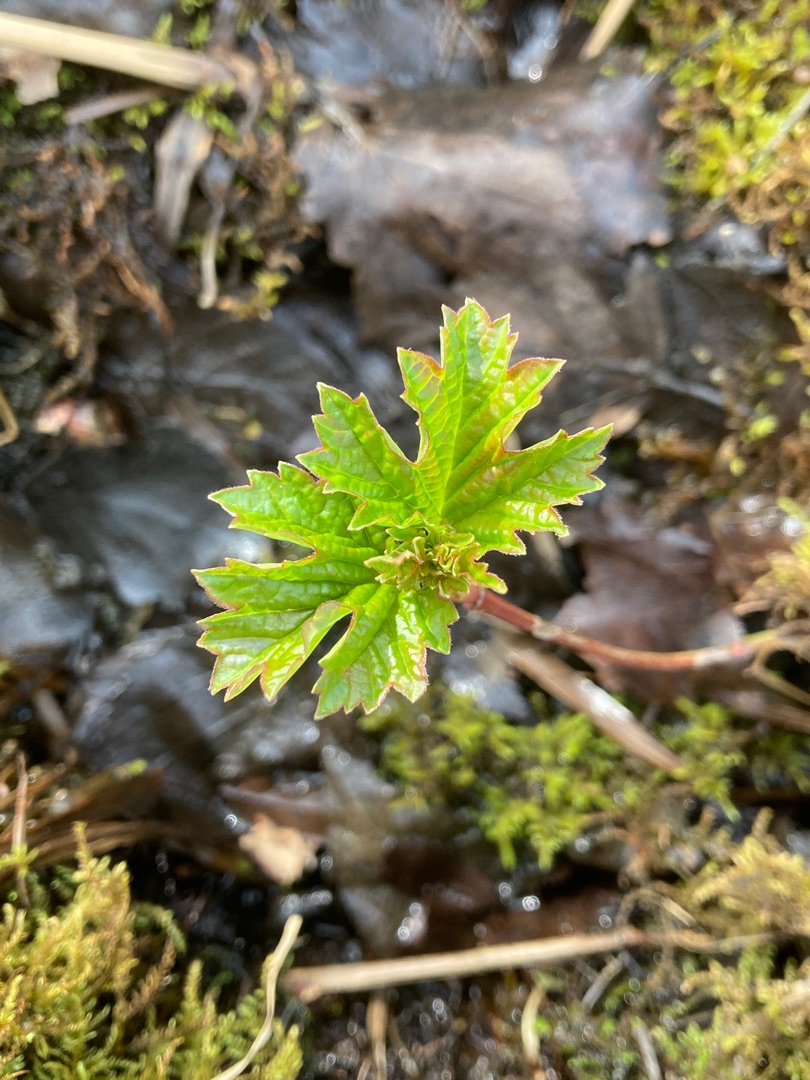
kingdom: Plantae
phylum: Tracheophyta
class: Magnoliopsida
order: Dipsacales
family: Viburnaceae
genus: Viburnum
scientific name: Viburnum opulus
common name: Kvalkved
